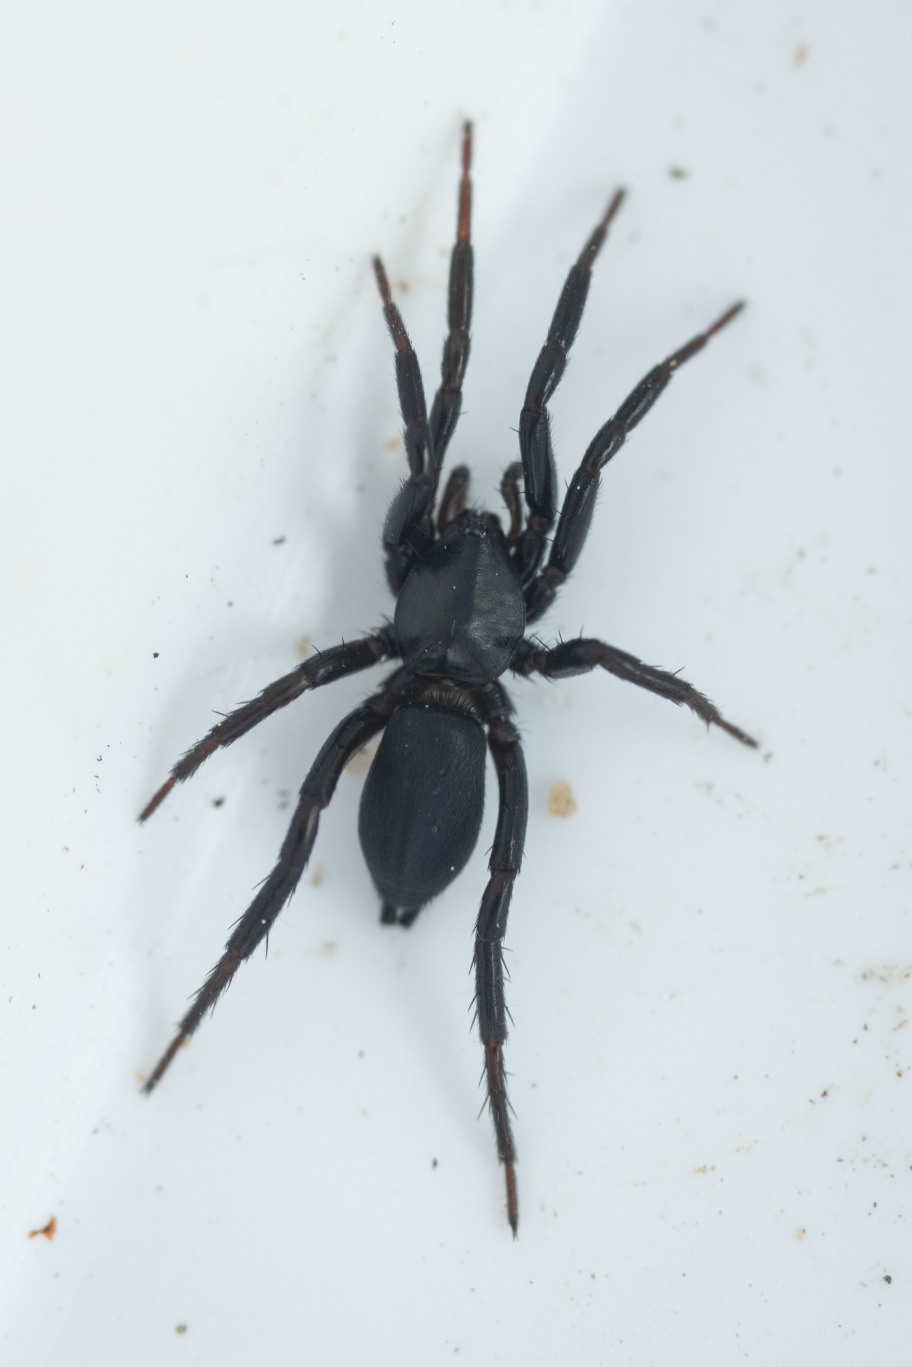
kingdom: Animalia
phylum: Arthropoda
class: Arachnida
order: Araneae
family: Gnaphosidae
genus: Drassyllus
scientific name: Drassyllus praeficus
